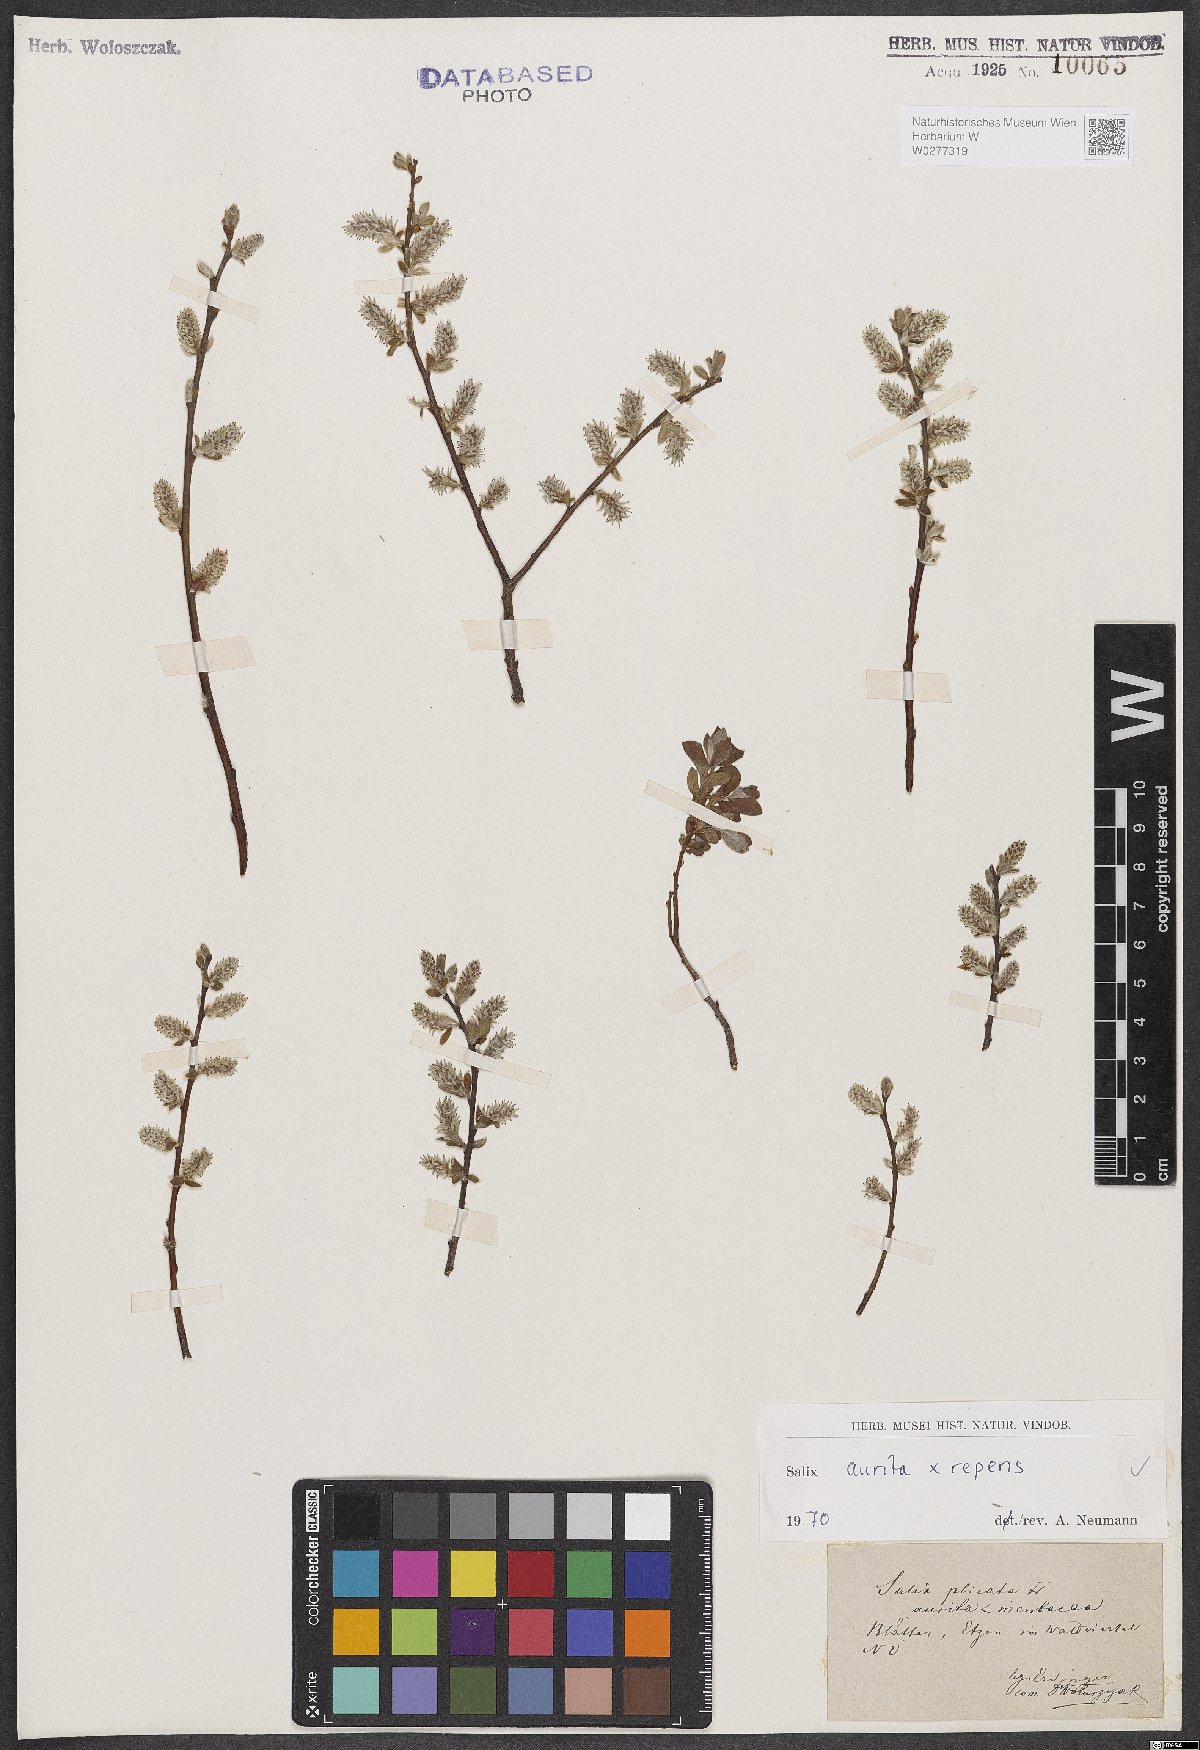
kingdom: Plantae
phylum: Tracheophyta
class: Magnoliopsida
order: Malpighiales
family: Salicaceae
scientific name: Salicaceae
